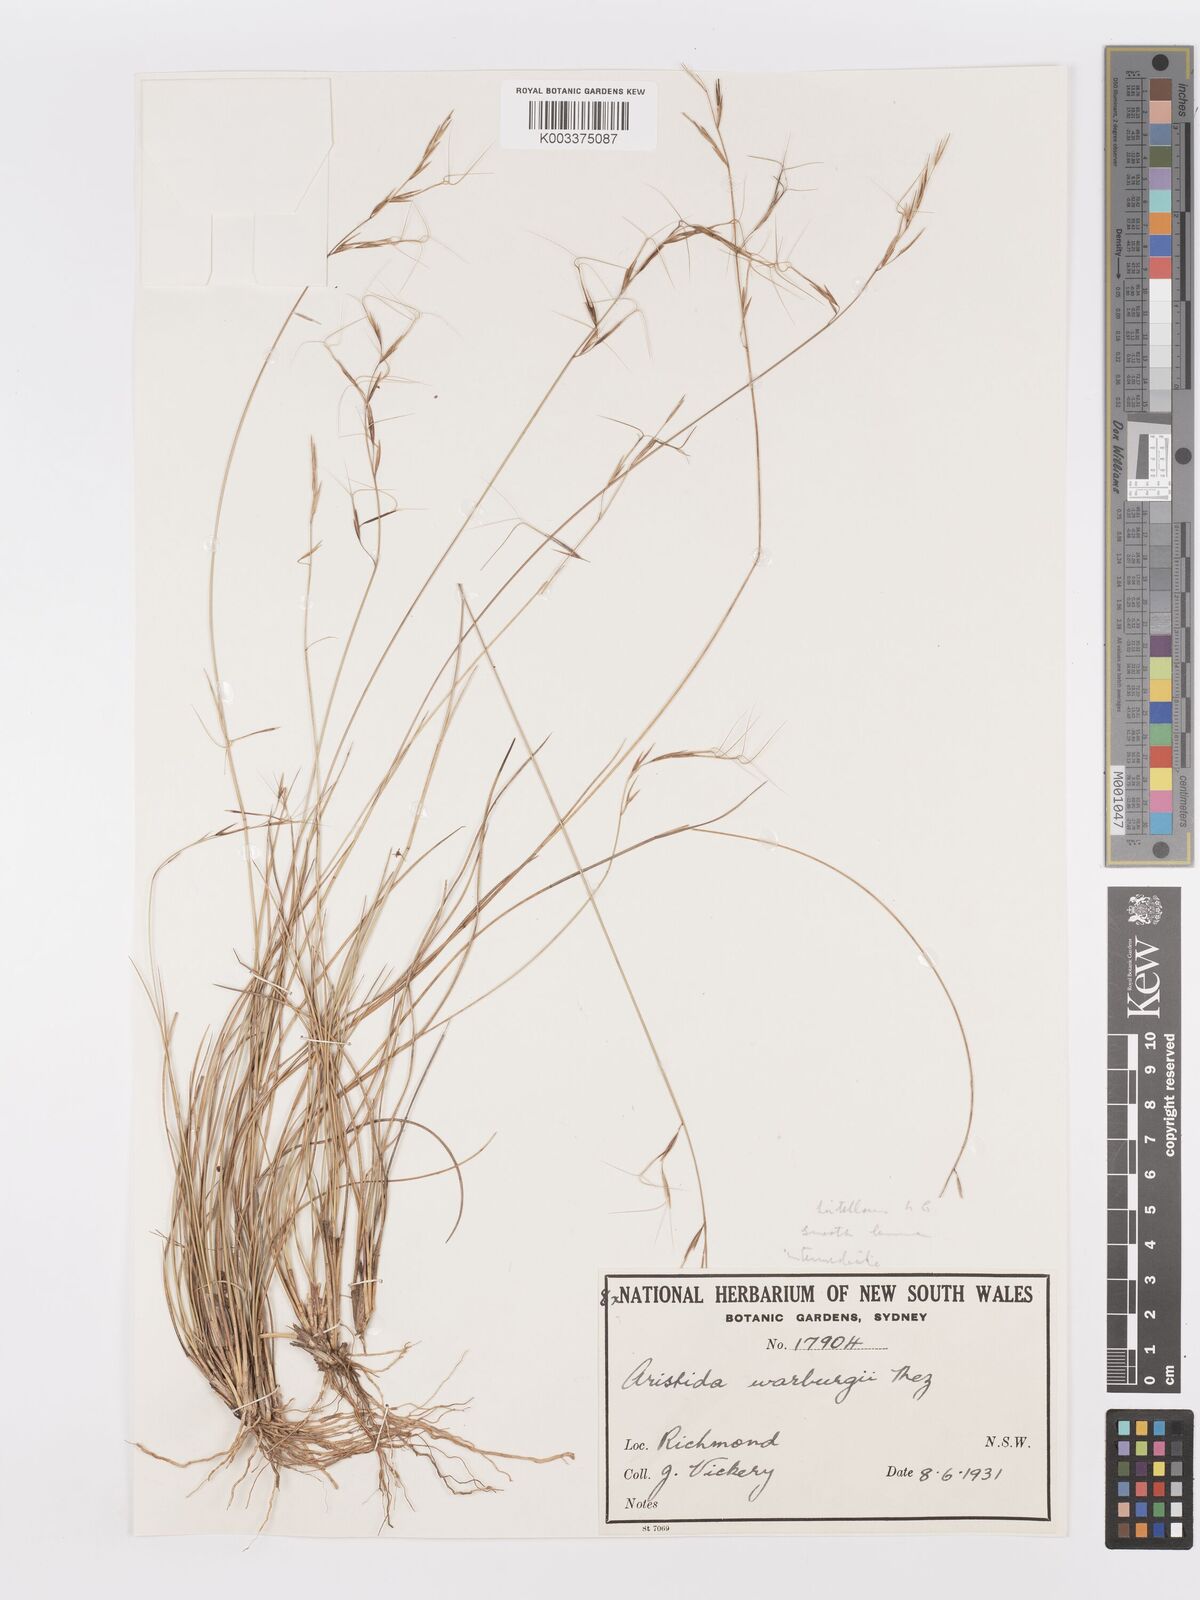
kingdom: Plantae
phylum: Tracheophyta
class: Liliopsida
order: Poales
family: Poaceae
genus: Aristida
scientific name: Aristida warburgii
